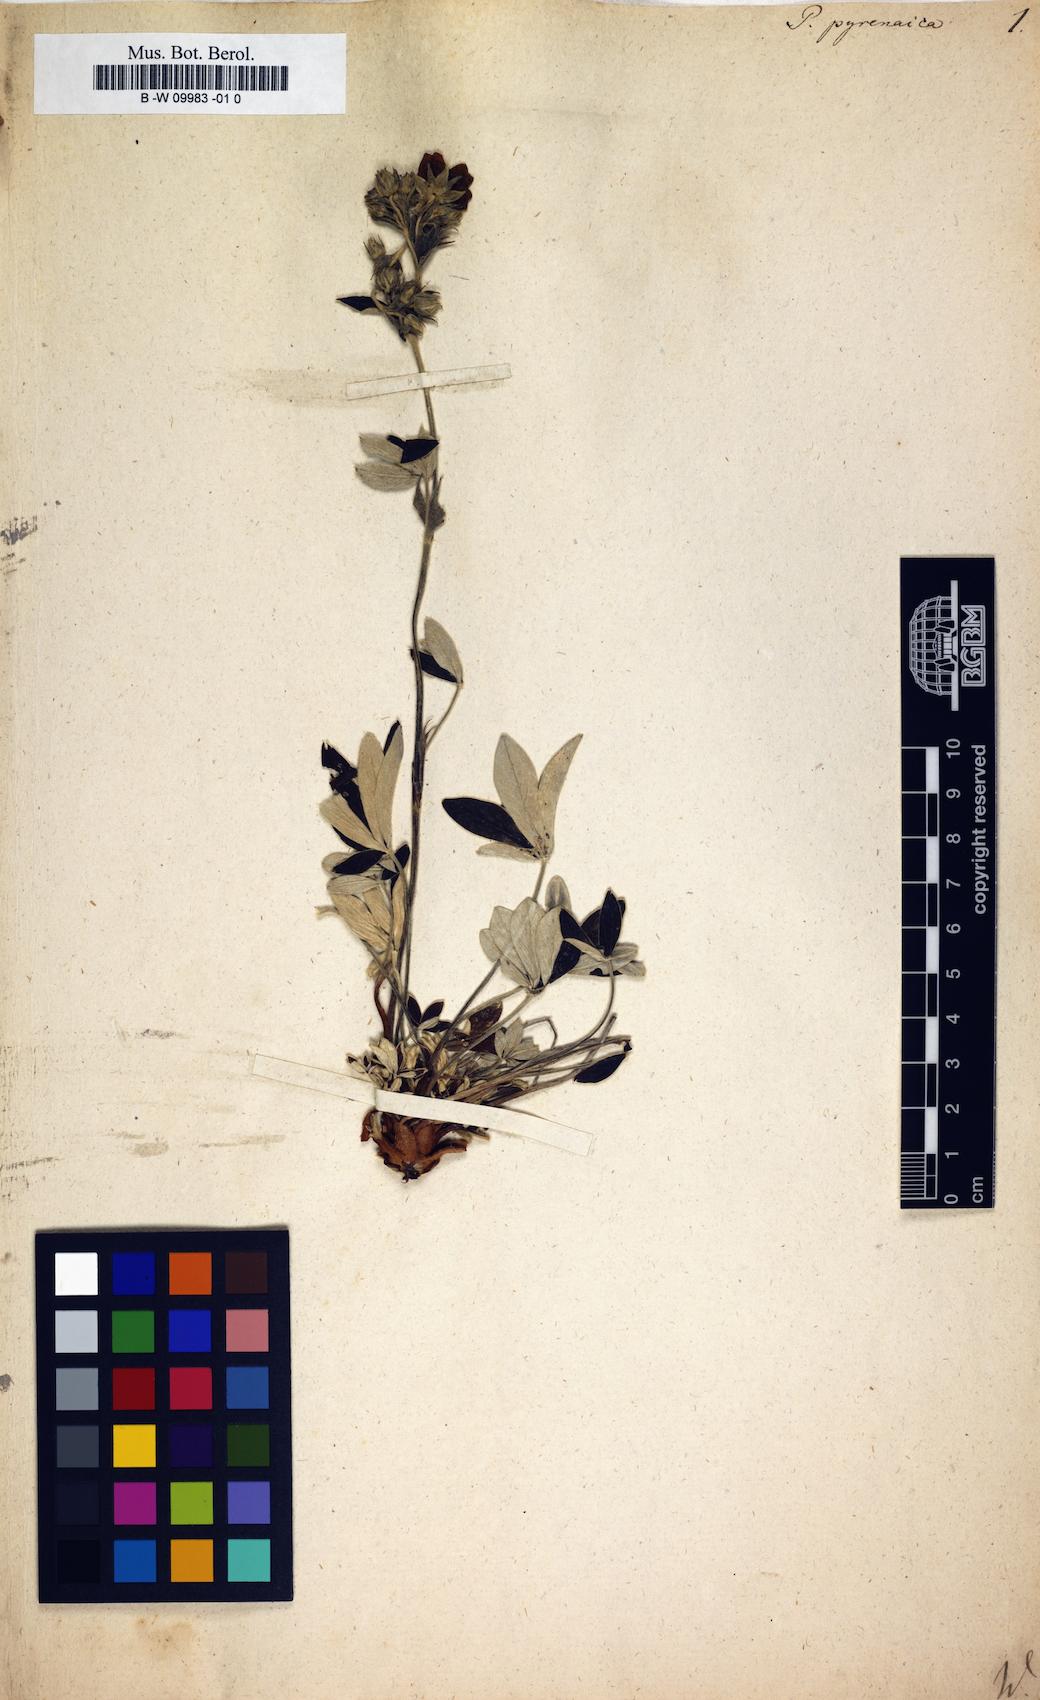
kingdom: Plantae
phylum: Tracheophyta
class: Magnoliopsida
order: Rosales
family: Rosaceae
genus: Potentilla
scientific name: Potentilla pyrenaica
